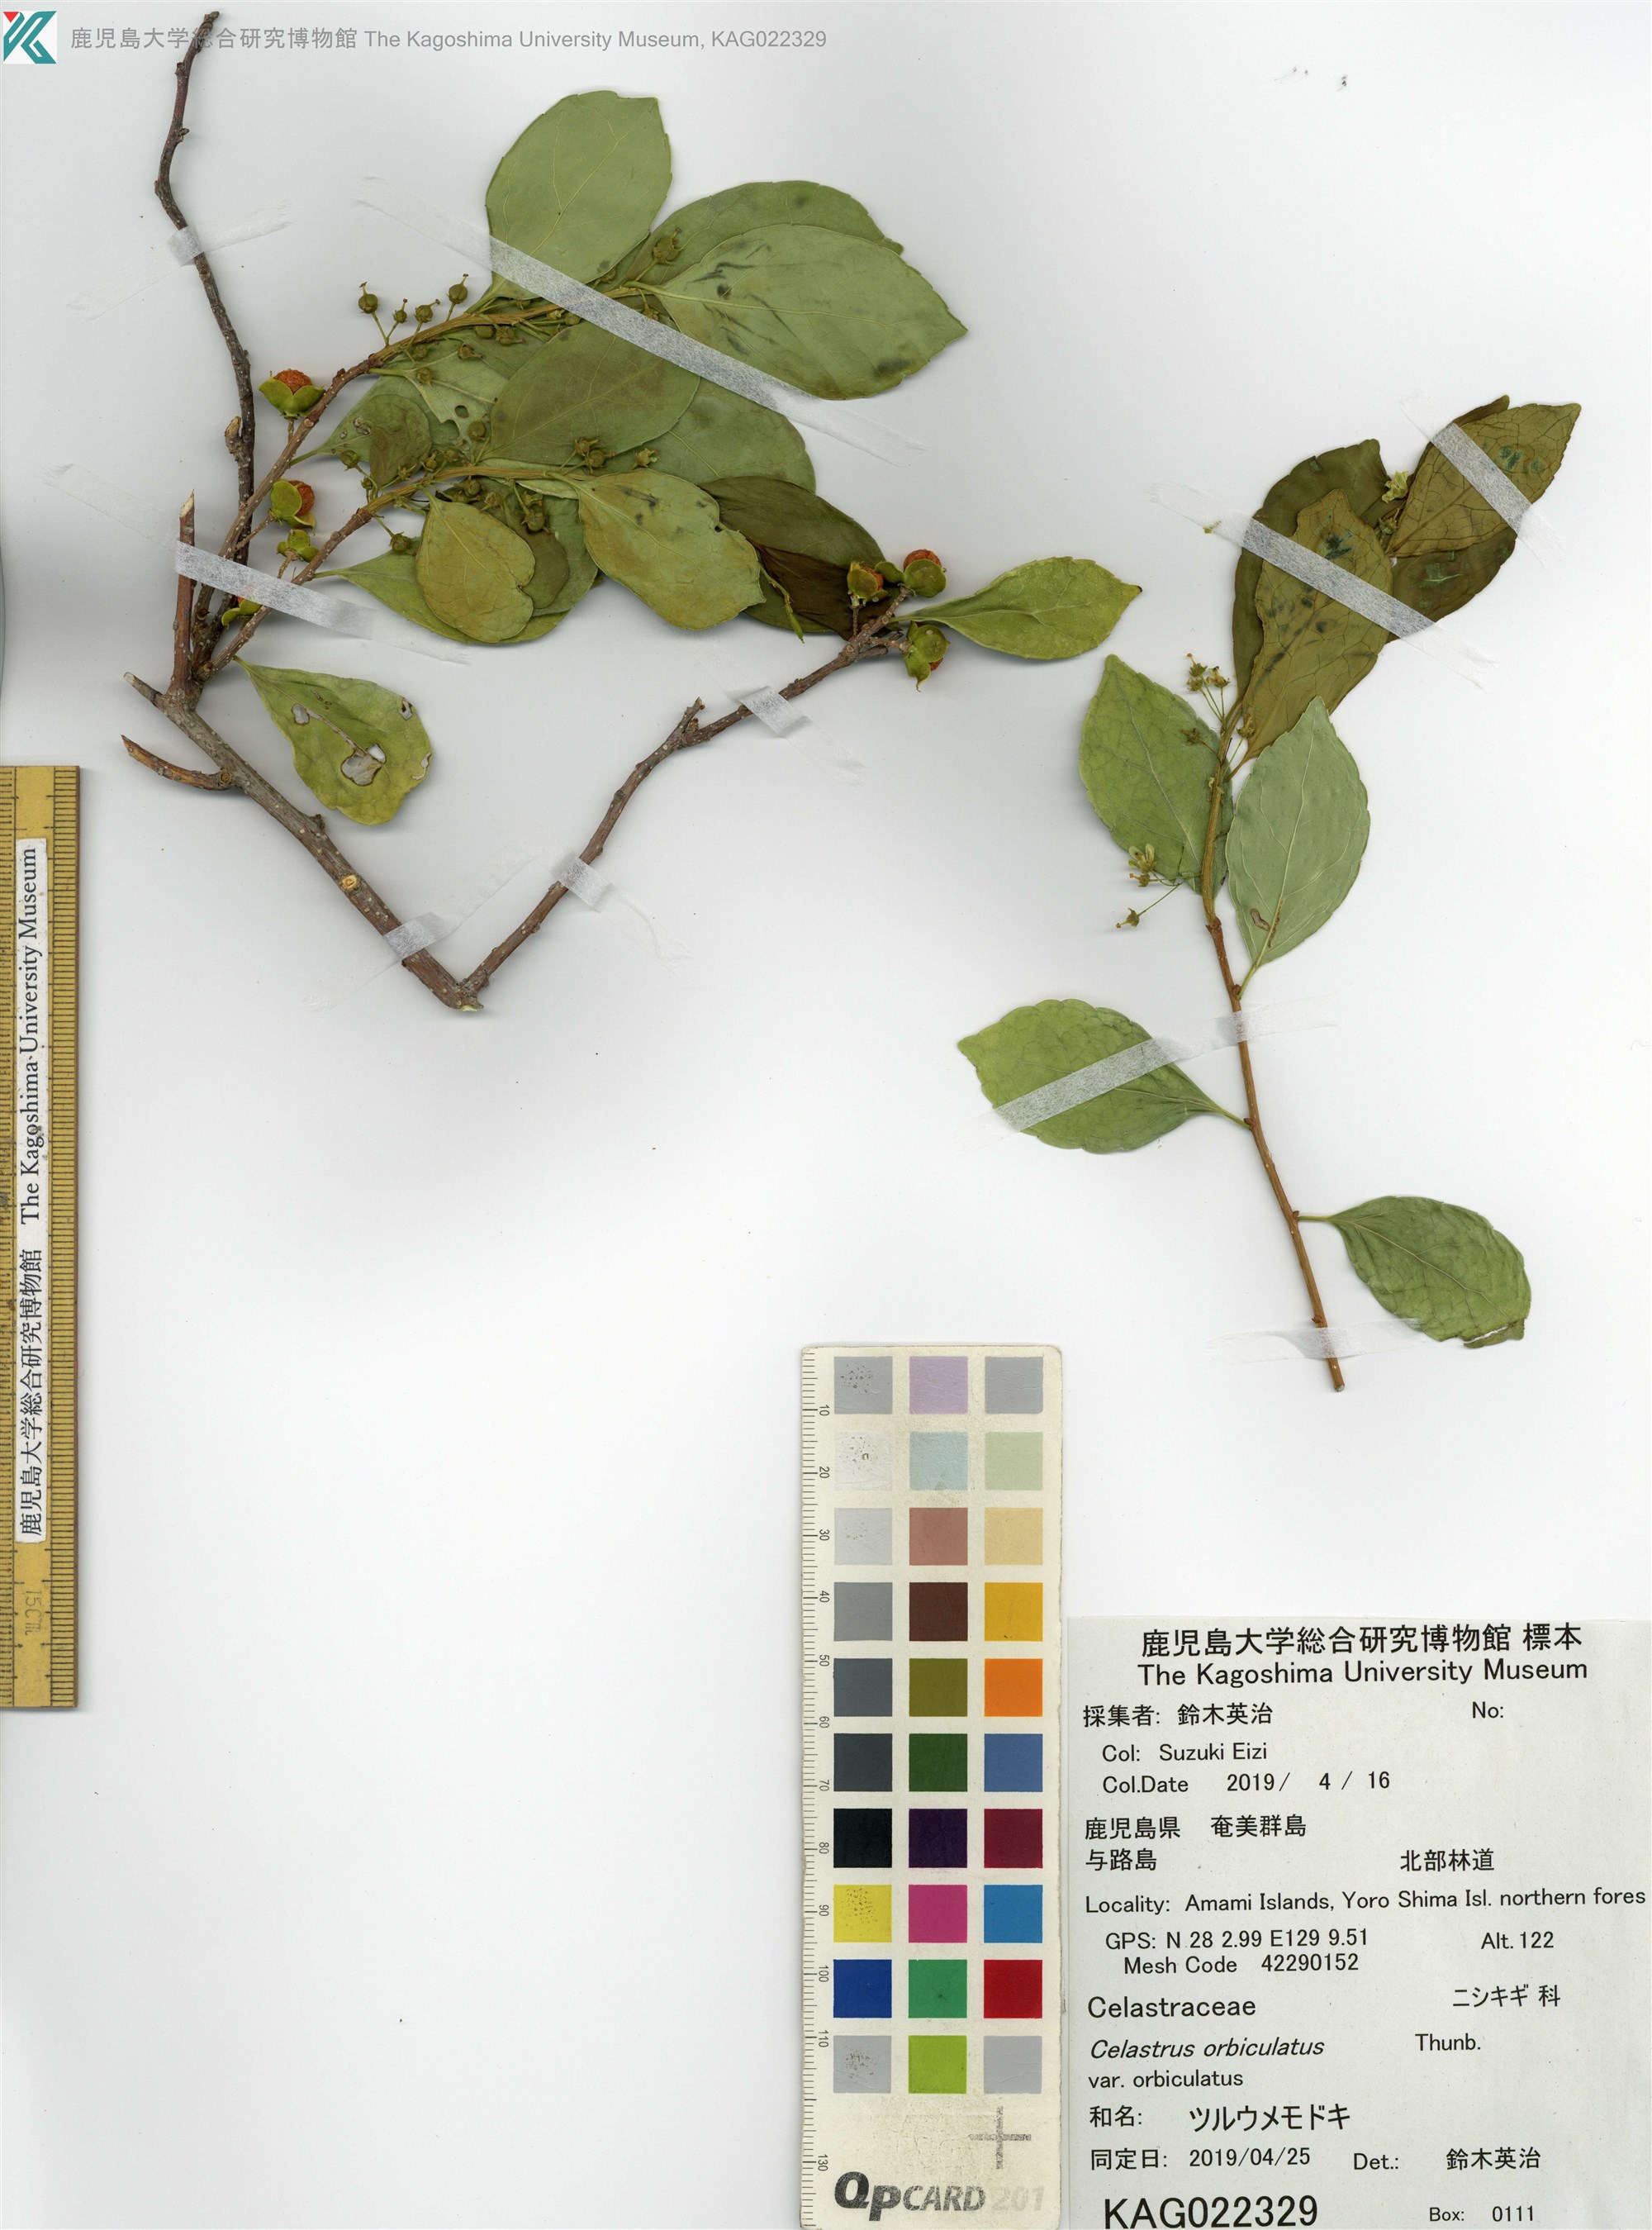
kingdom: Plantae
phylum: Tracheophyta
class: Magnoliopsida
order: Celastrales
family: Celastraceae
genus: Celastrus
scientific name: Celastrus punctatus
